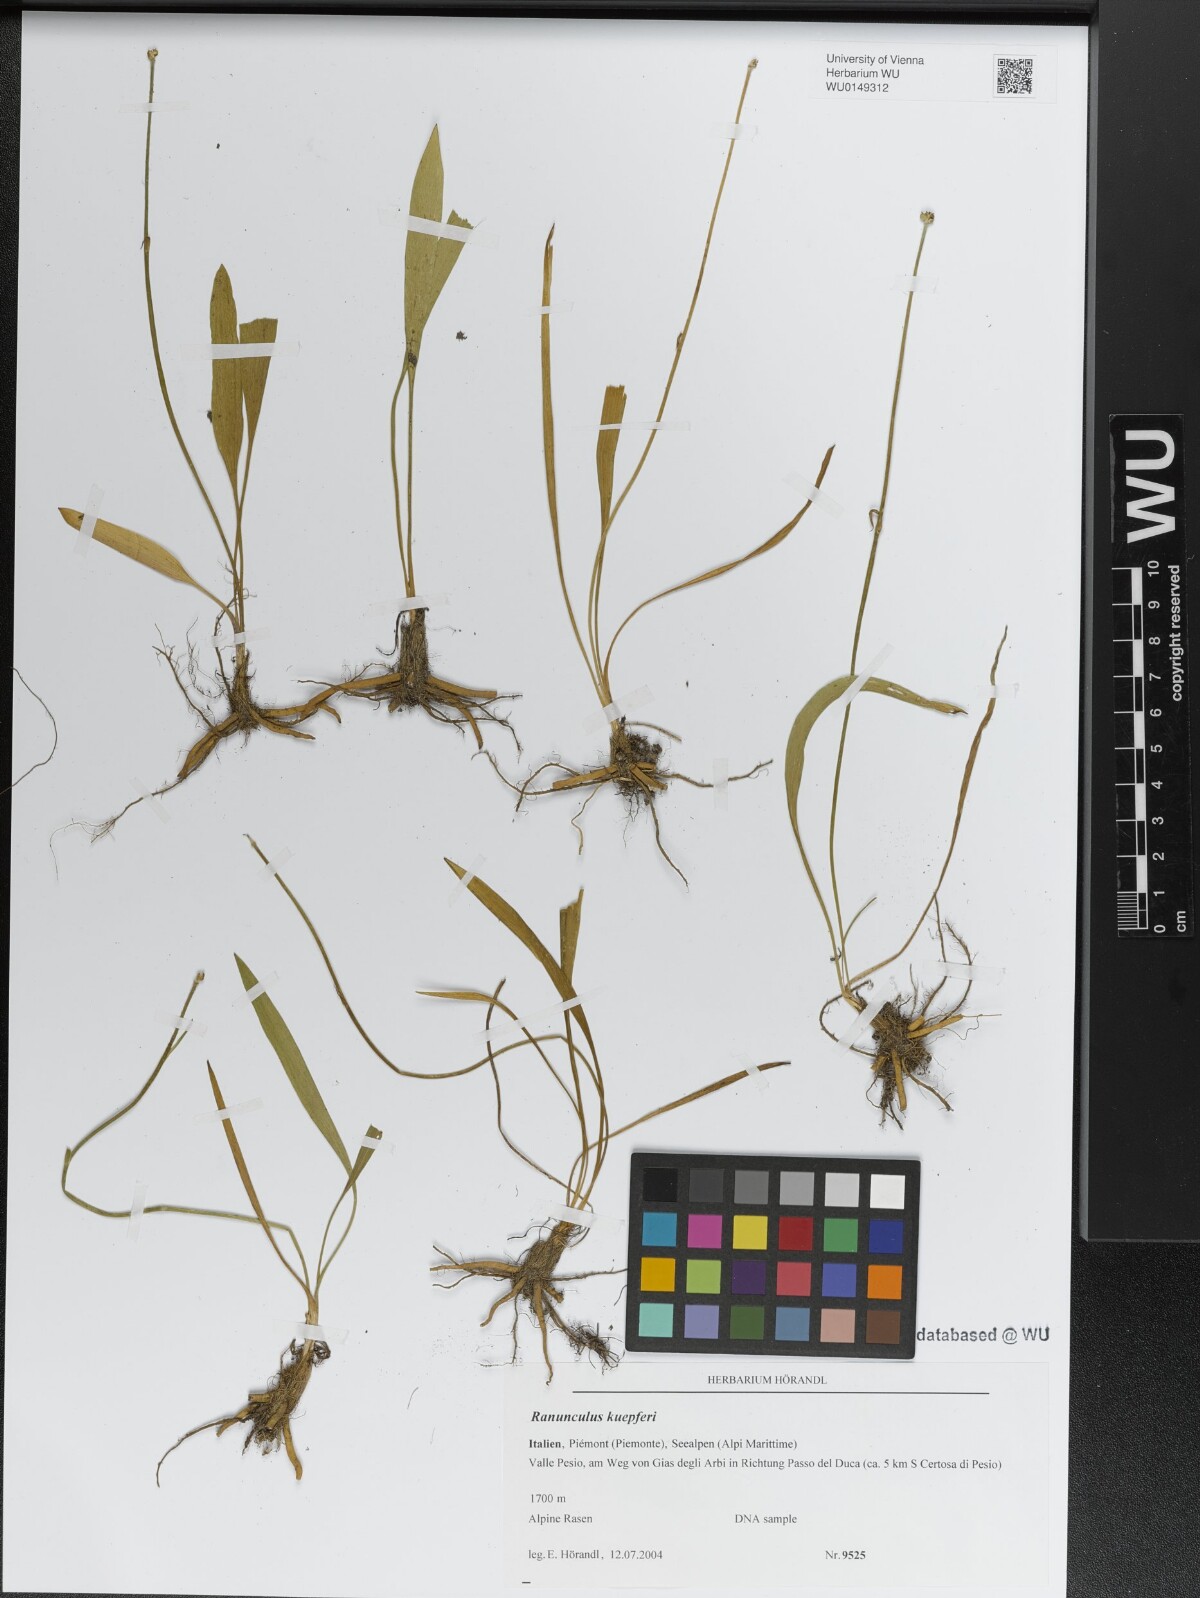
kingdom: Plantae
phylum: Tracheophyta
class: Magnoliopsida
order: Ranunculales
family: Ranunculaceae
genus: Ranunculus
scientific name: Ranunculus kuepferi
